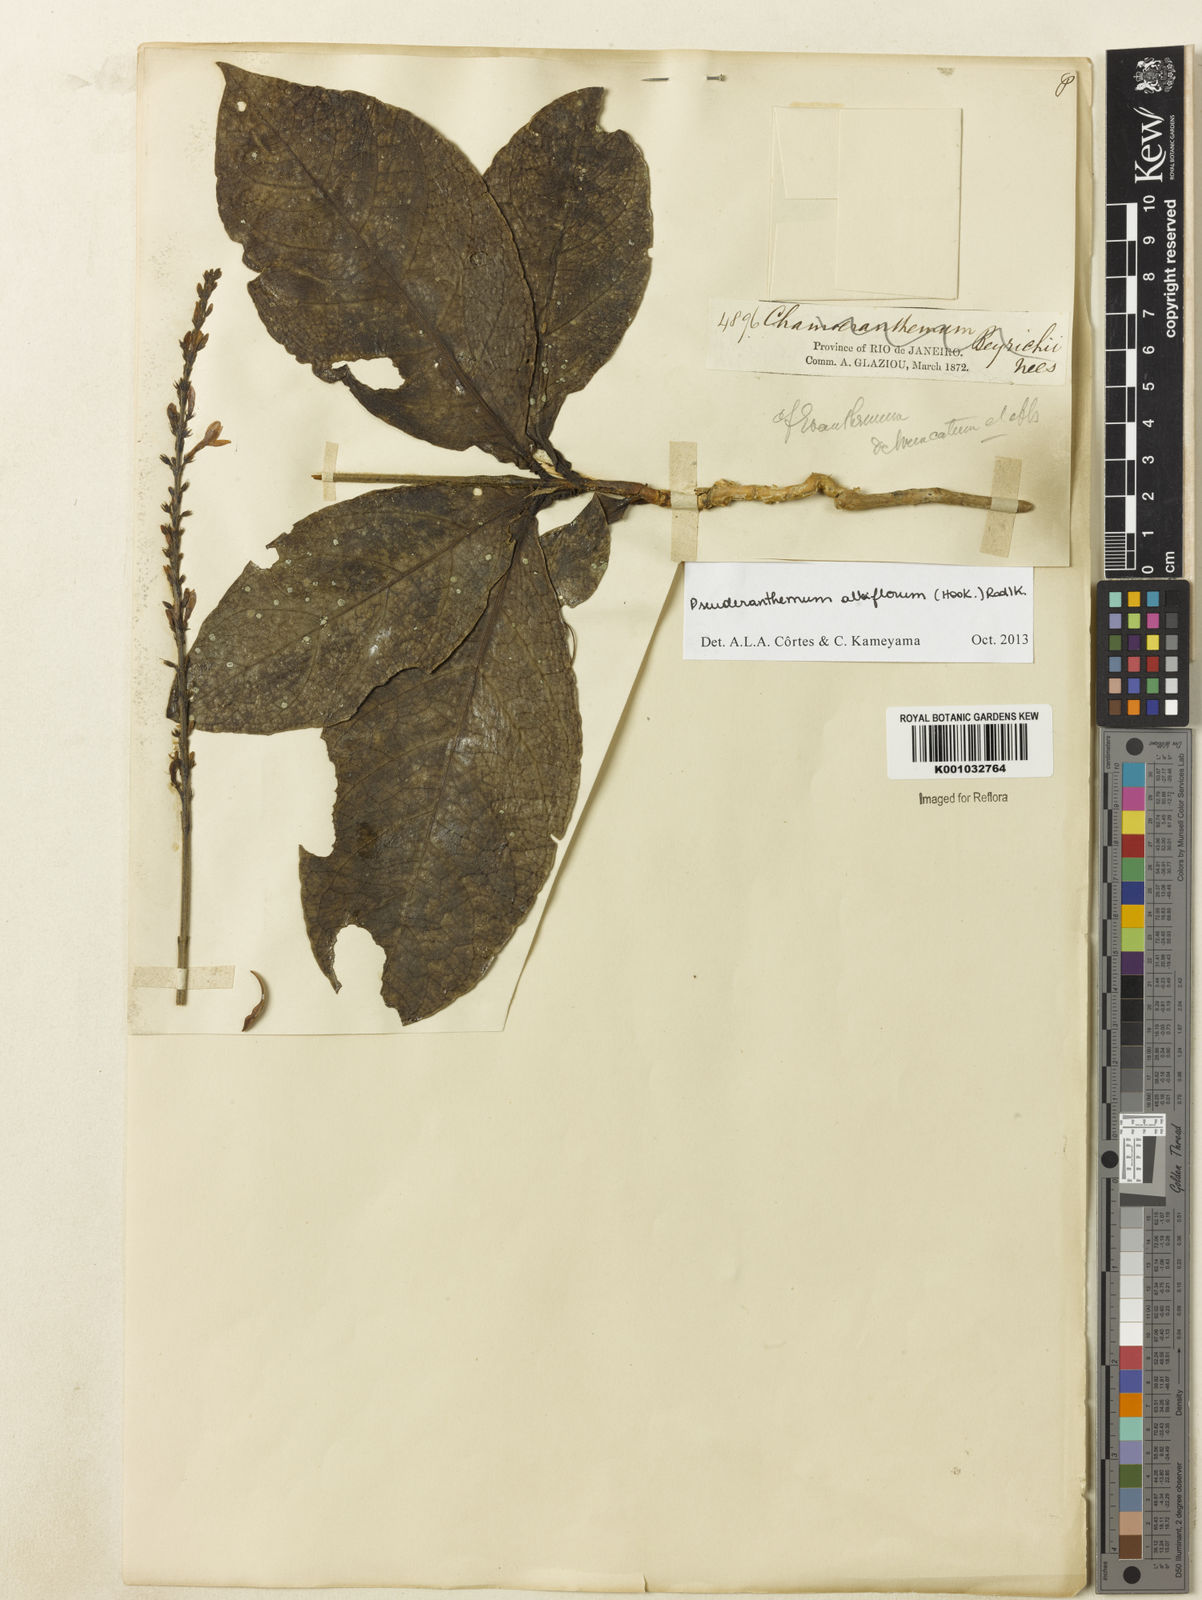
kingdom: Plantae
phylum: Tracheophyta
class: Magnoliopsida
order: Lamiales
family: Acanthaceae
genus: Pseuderanthemum
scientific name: Pseuderanthemum albiflorum
